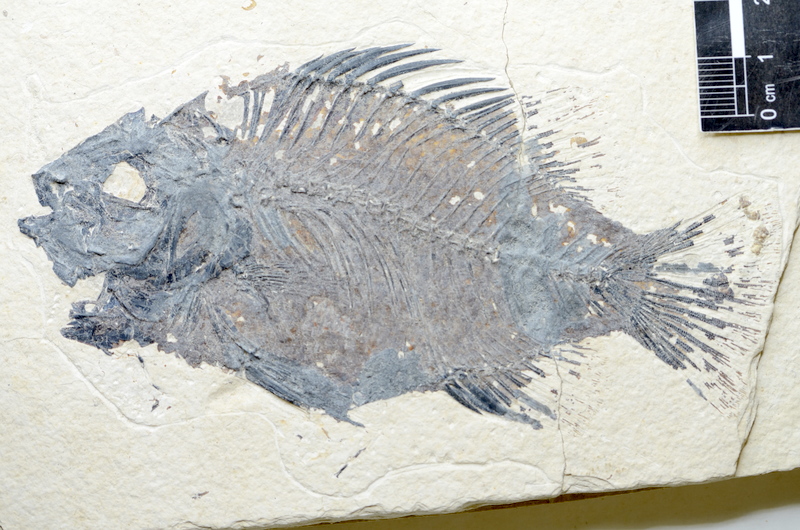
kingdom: Animalia
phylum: Chordata
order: Perciformes
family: Pomacentridae
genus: Priscacara
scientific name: Priscacara oxyprion
